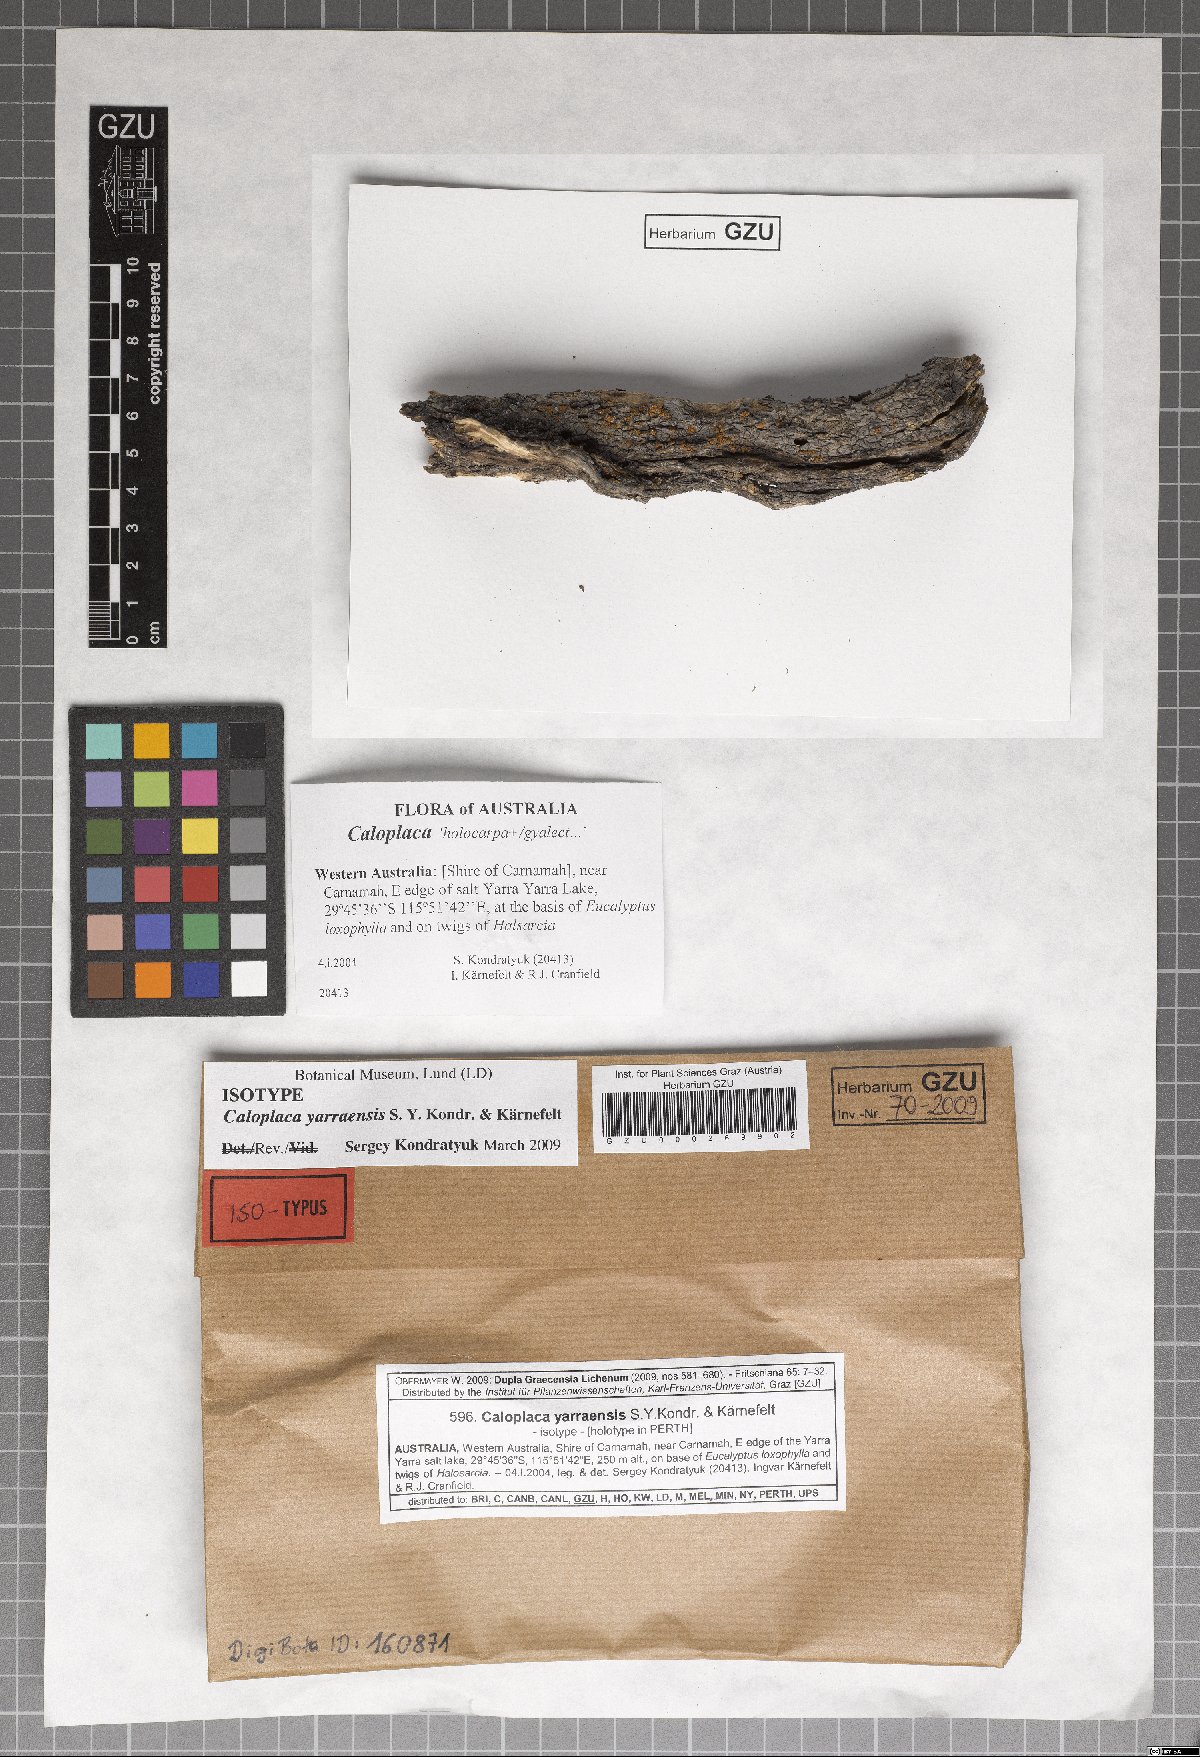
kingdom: Fungi
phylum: Ascomycota
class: Lecanoromycetes
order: Teloschistales
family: Teloschistaceae
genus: Cerothallia
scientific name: Cerothallia yarraensis
